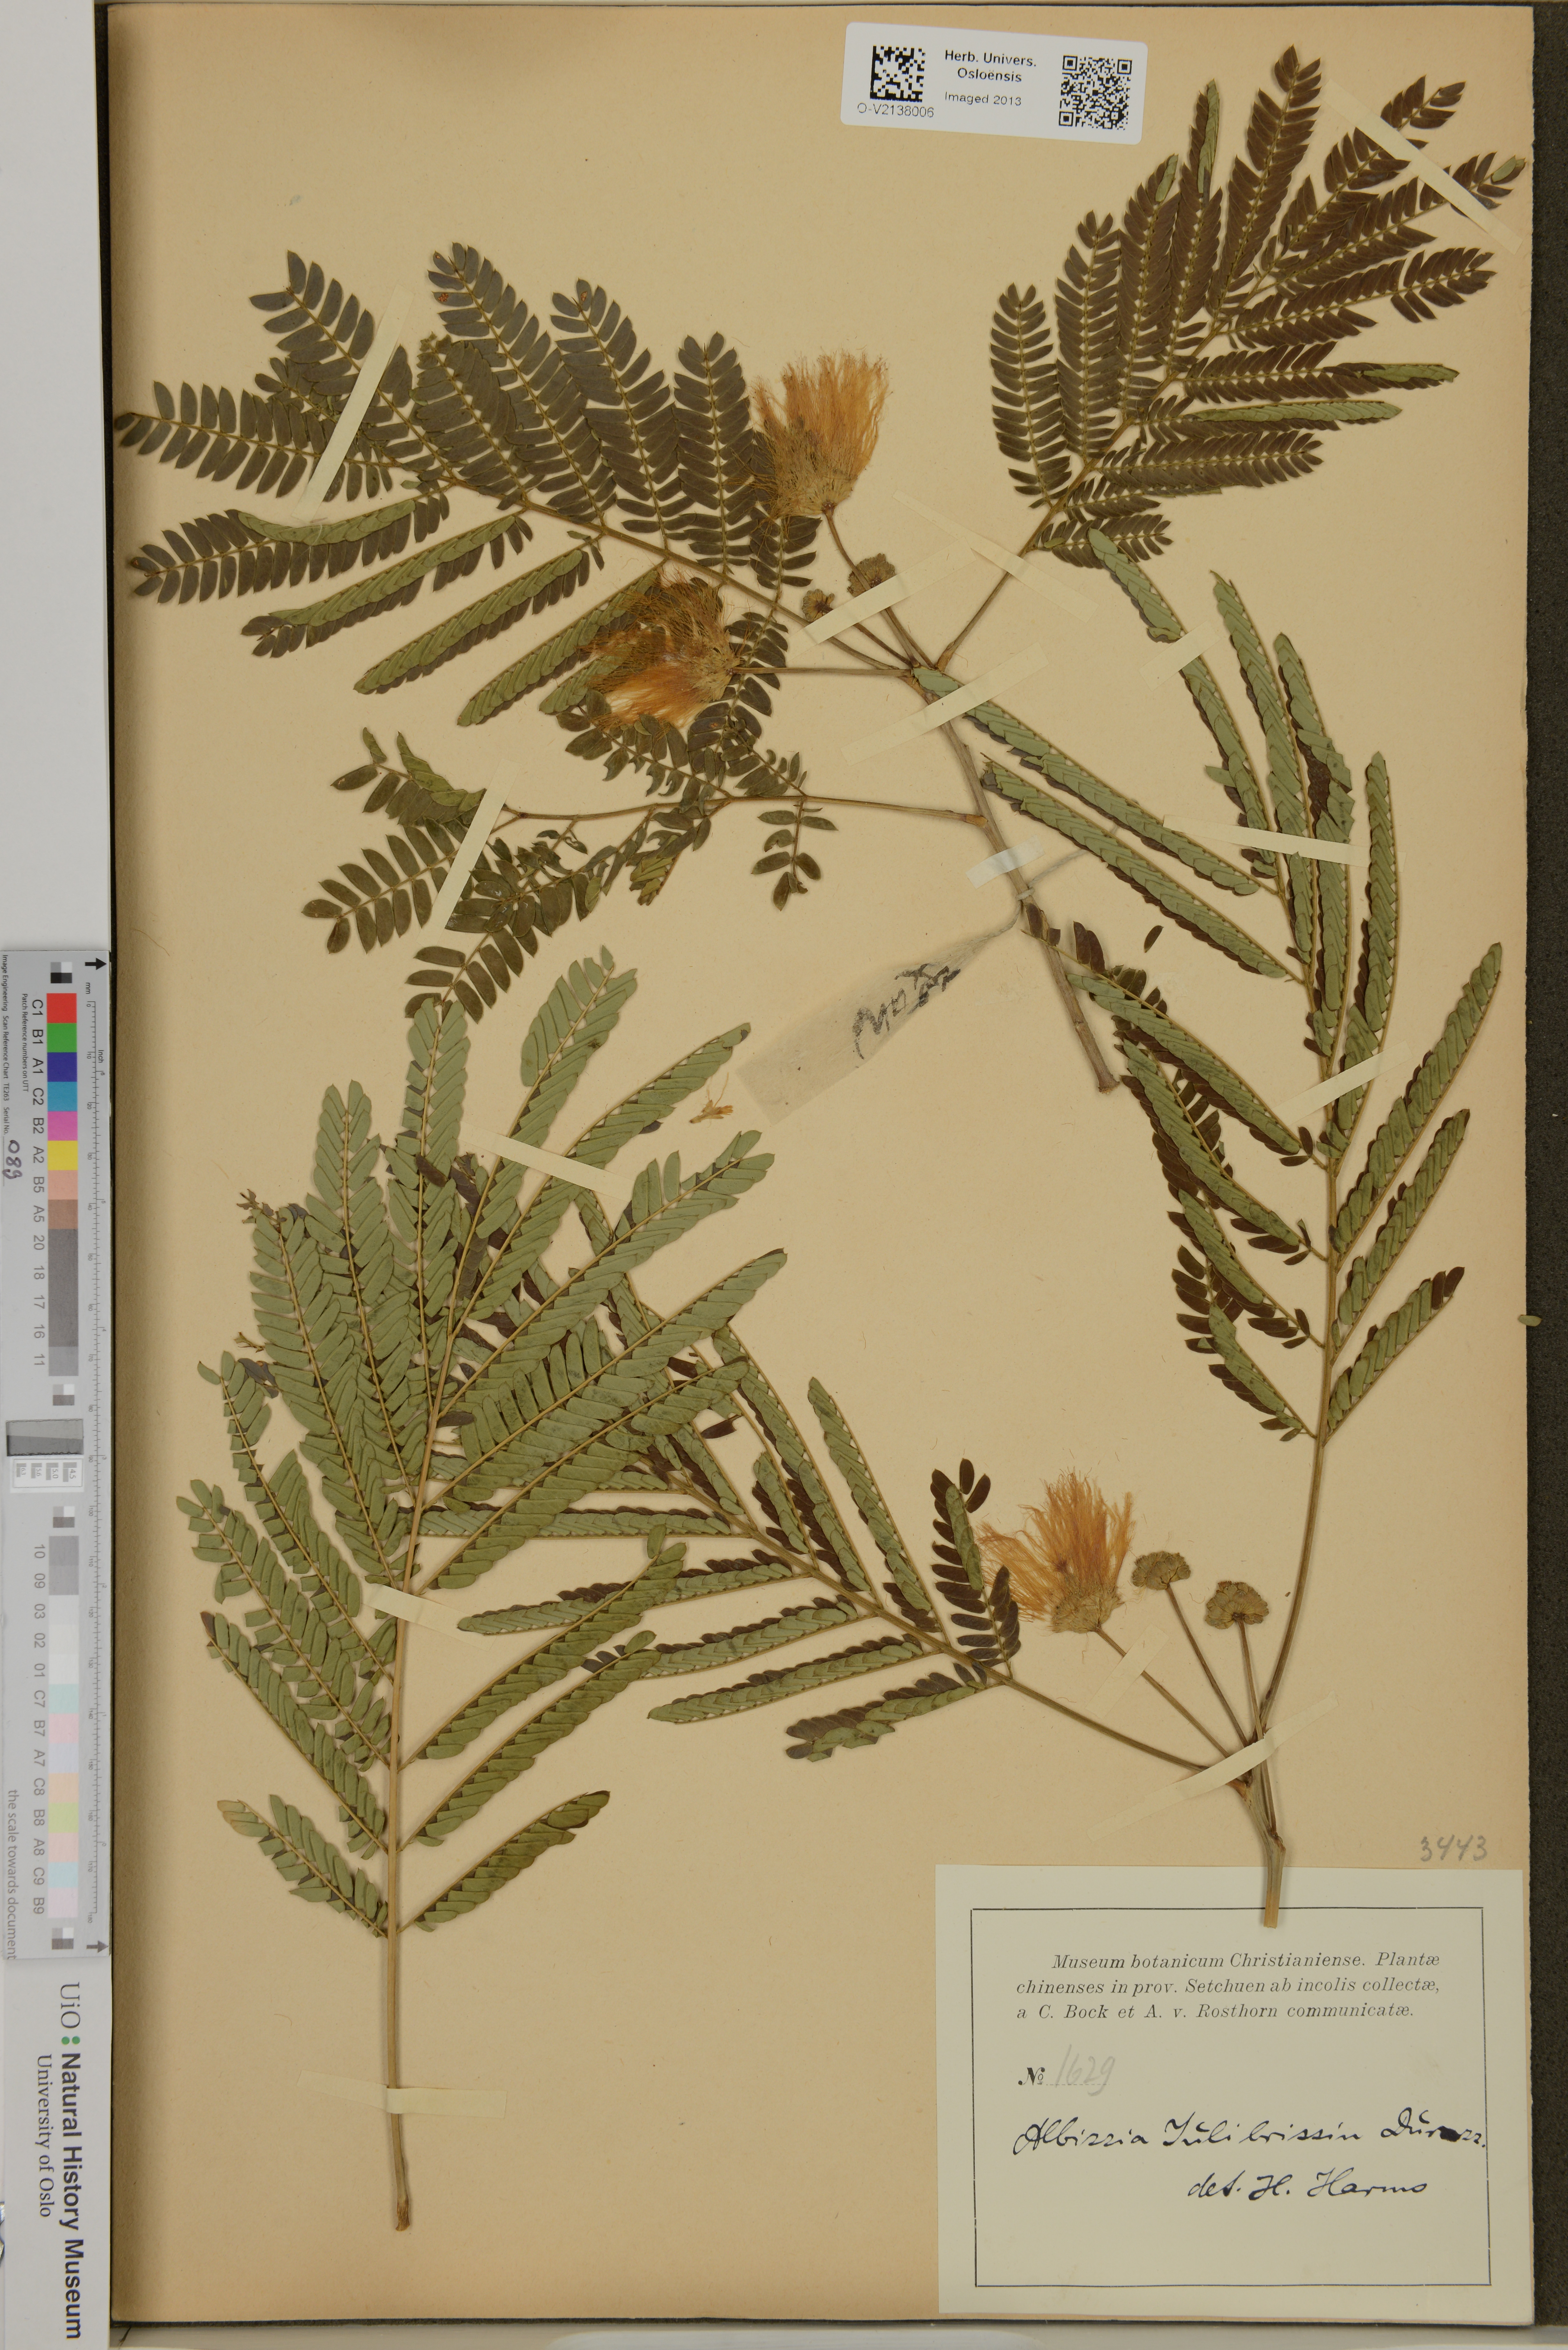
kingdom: Plantae
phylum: Tracheophyta
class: Magnoliopsida
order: Fabales
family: Fabaceae
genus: Albizia
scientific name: Albizia julibrissin
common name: Silktree
